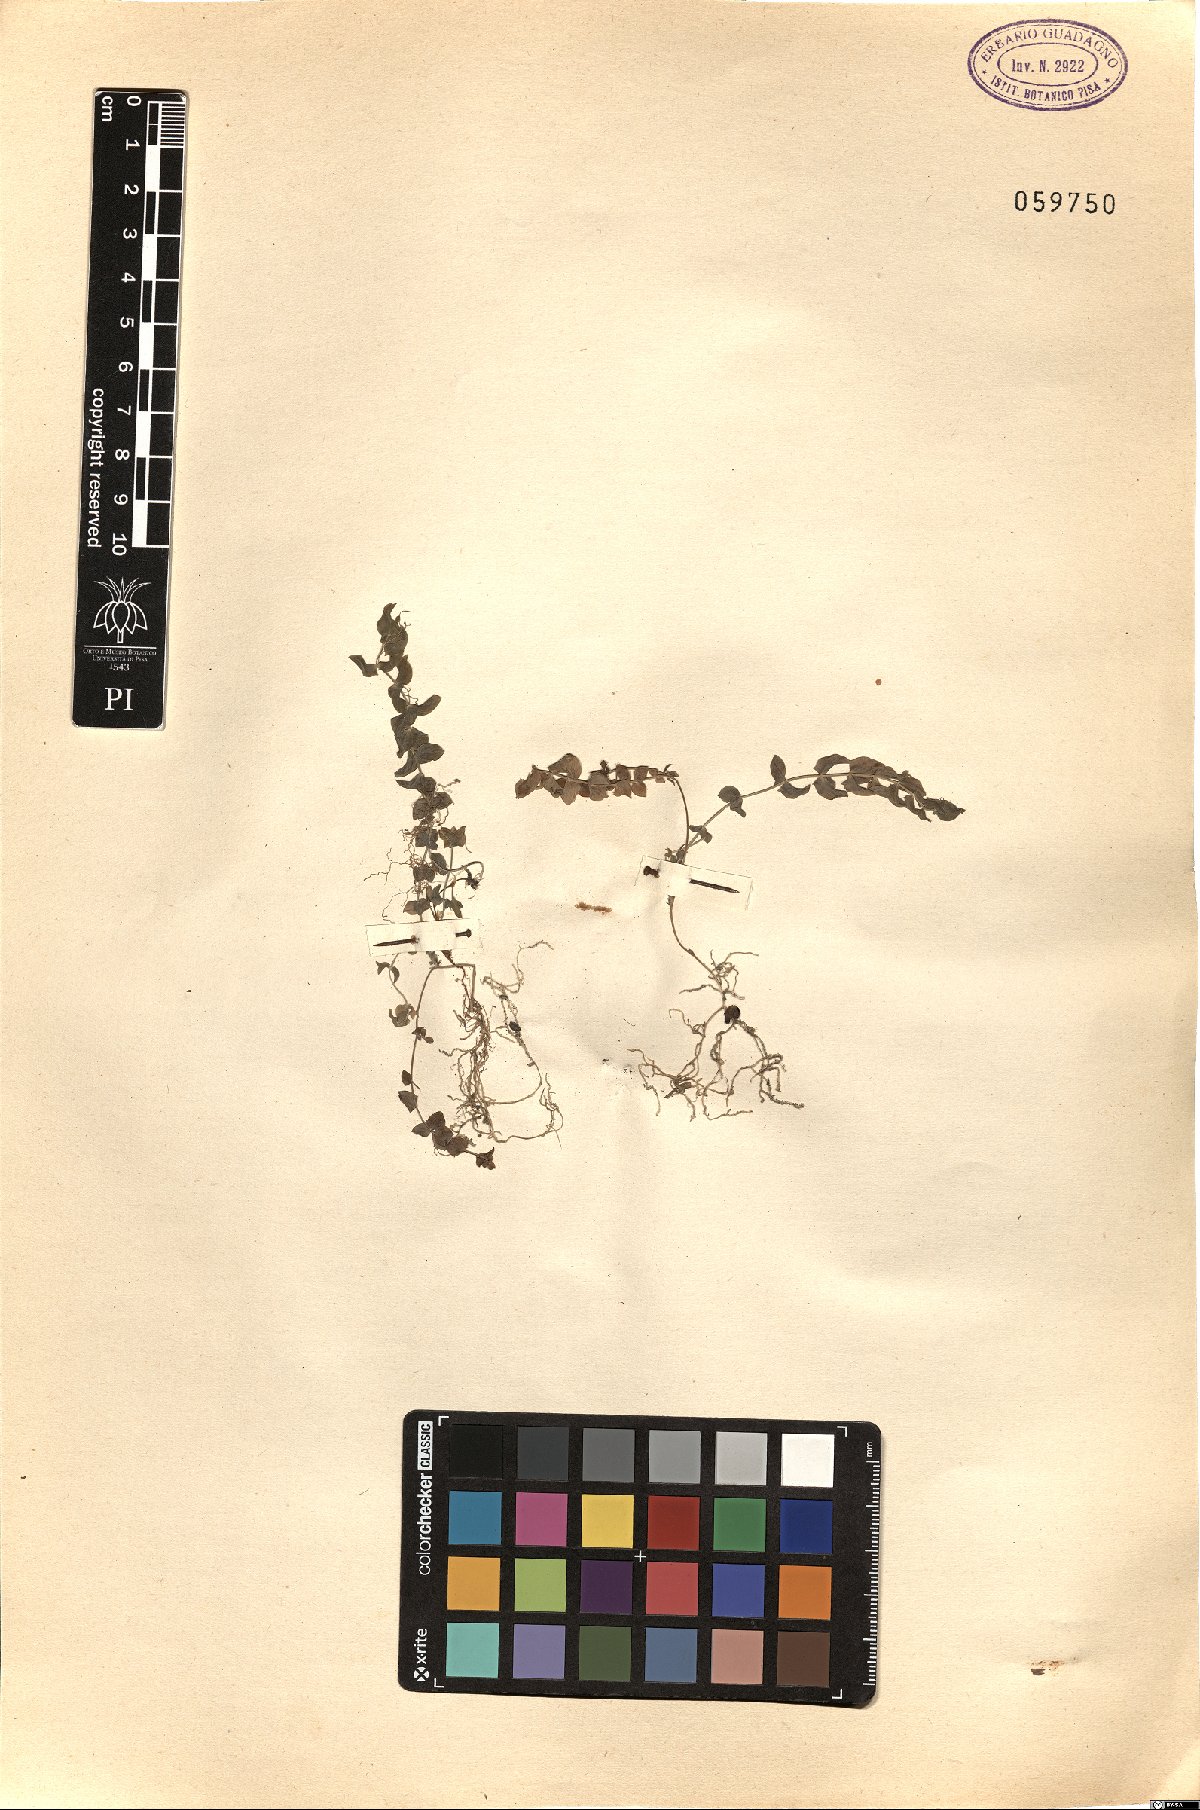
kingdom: Plantae
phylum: Tracheophyta
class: Magnoliopsida
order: Fabales
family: Fabaceae
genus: Lathyrus
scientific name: Lathyrus aphaca
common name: Yellow vetchling
